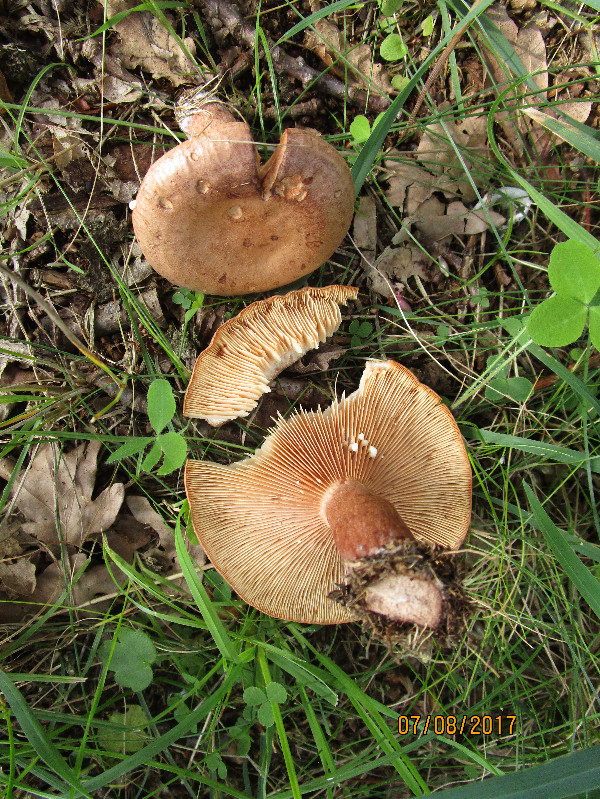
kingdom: Fungi
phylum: Basidiomycota
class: Agaricomycetes
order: Russulales
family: Russulaceae
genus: Lactarius
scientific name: Lactarius quietus
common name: ege-mælkehat
